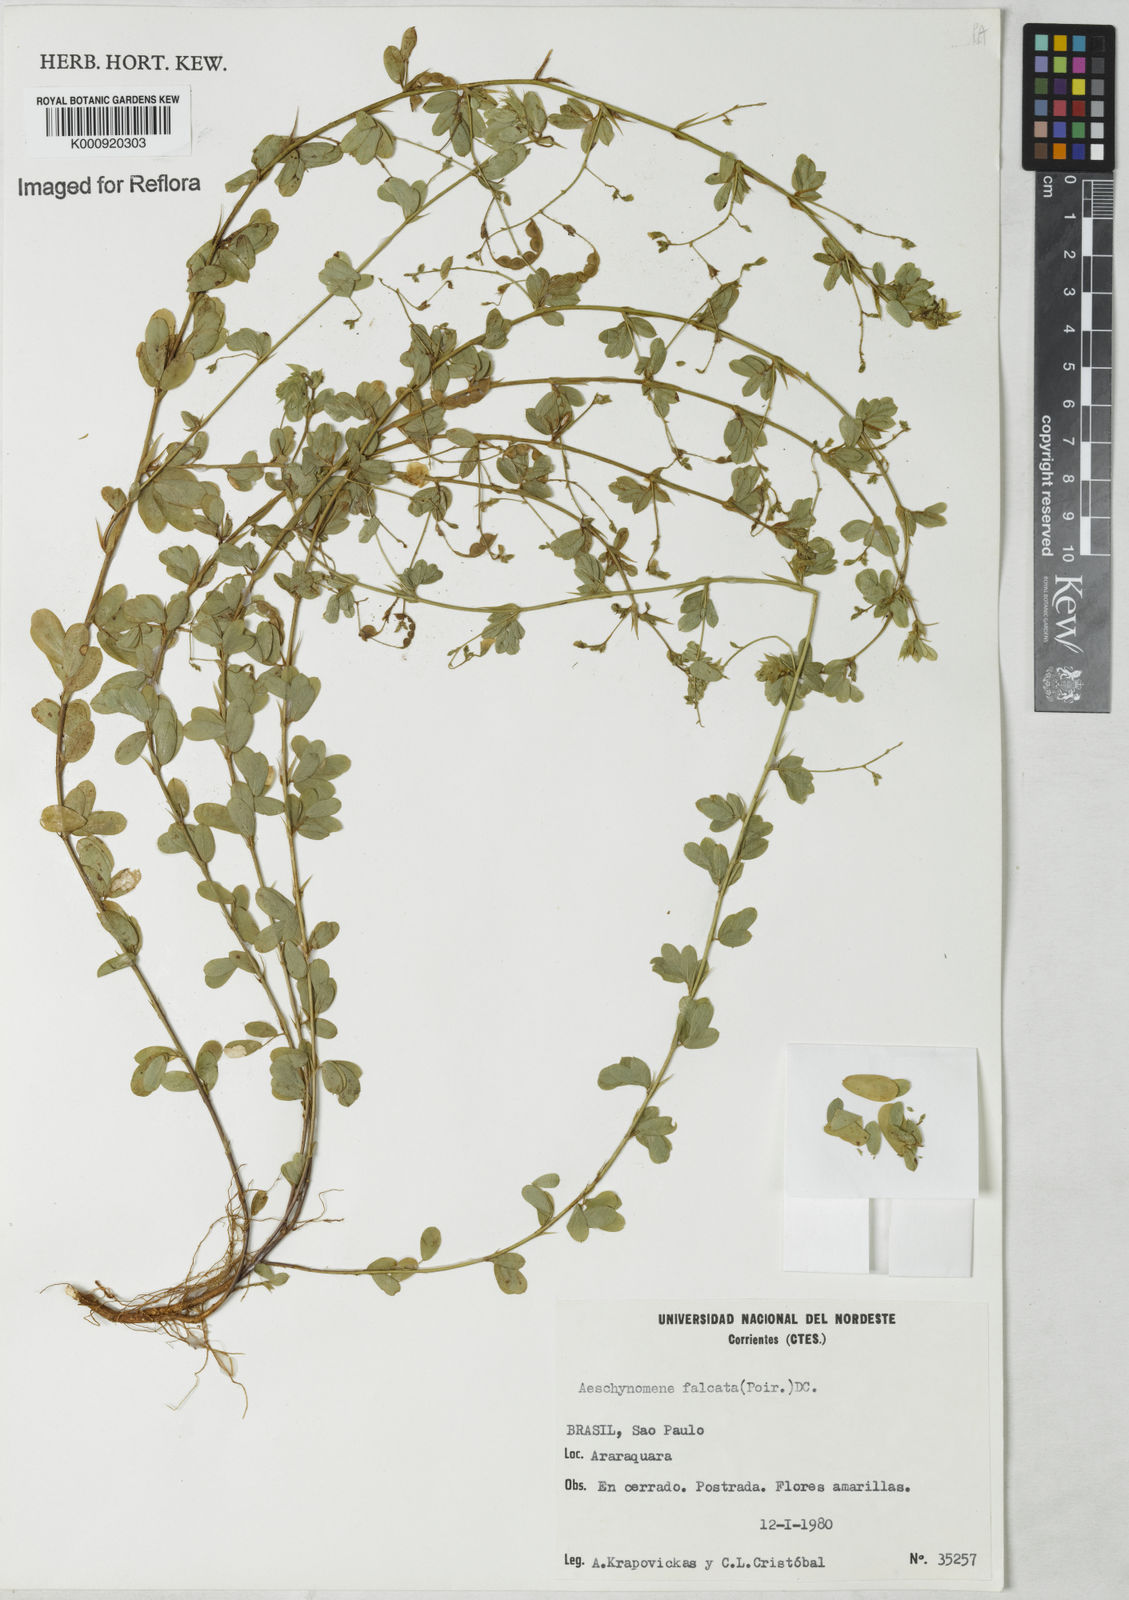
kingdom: Plantae
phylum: Tracheophyta
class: Magnoliopsida
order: Fabales
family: Fabaceae
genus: Aeschynomene
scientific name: Aeschynomene
